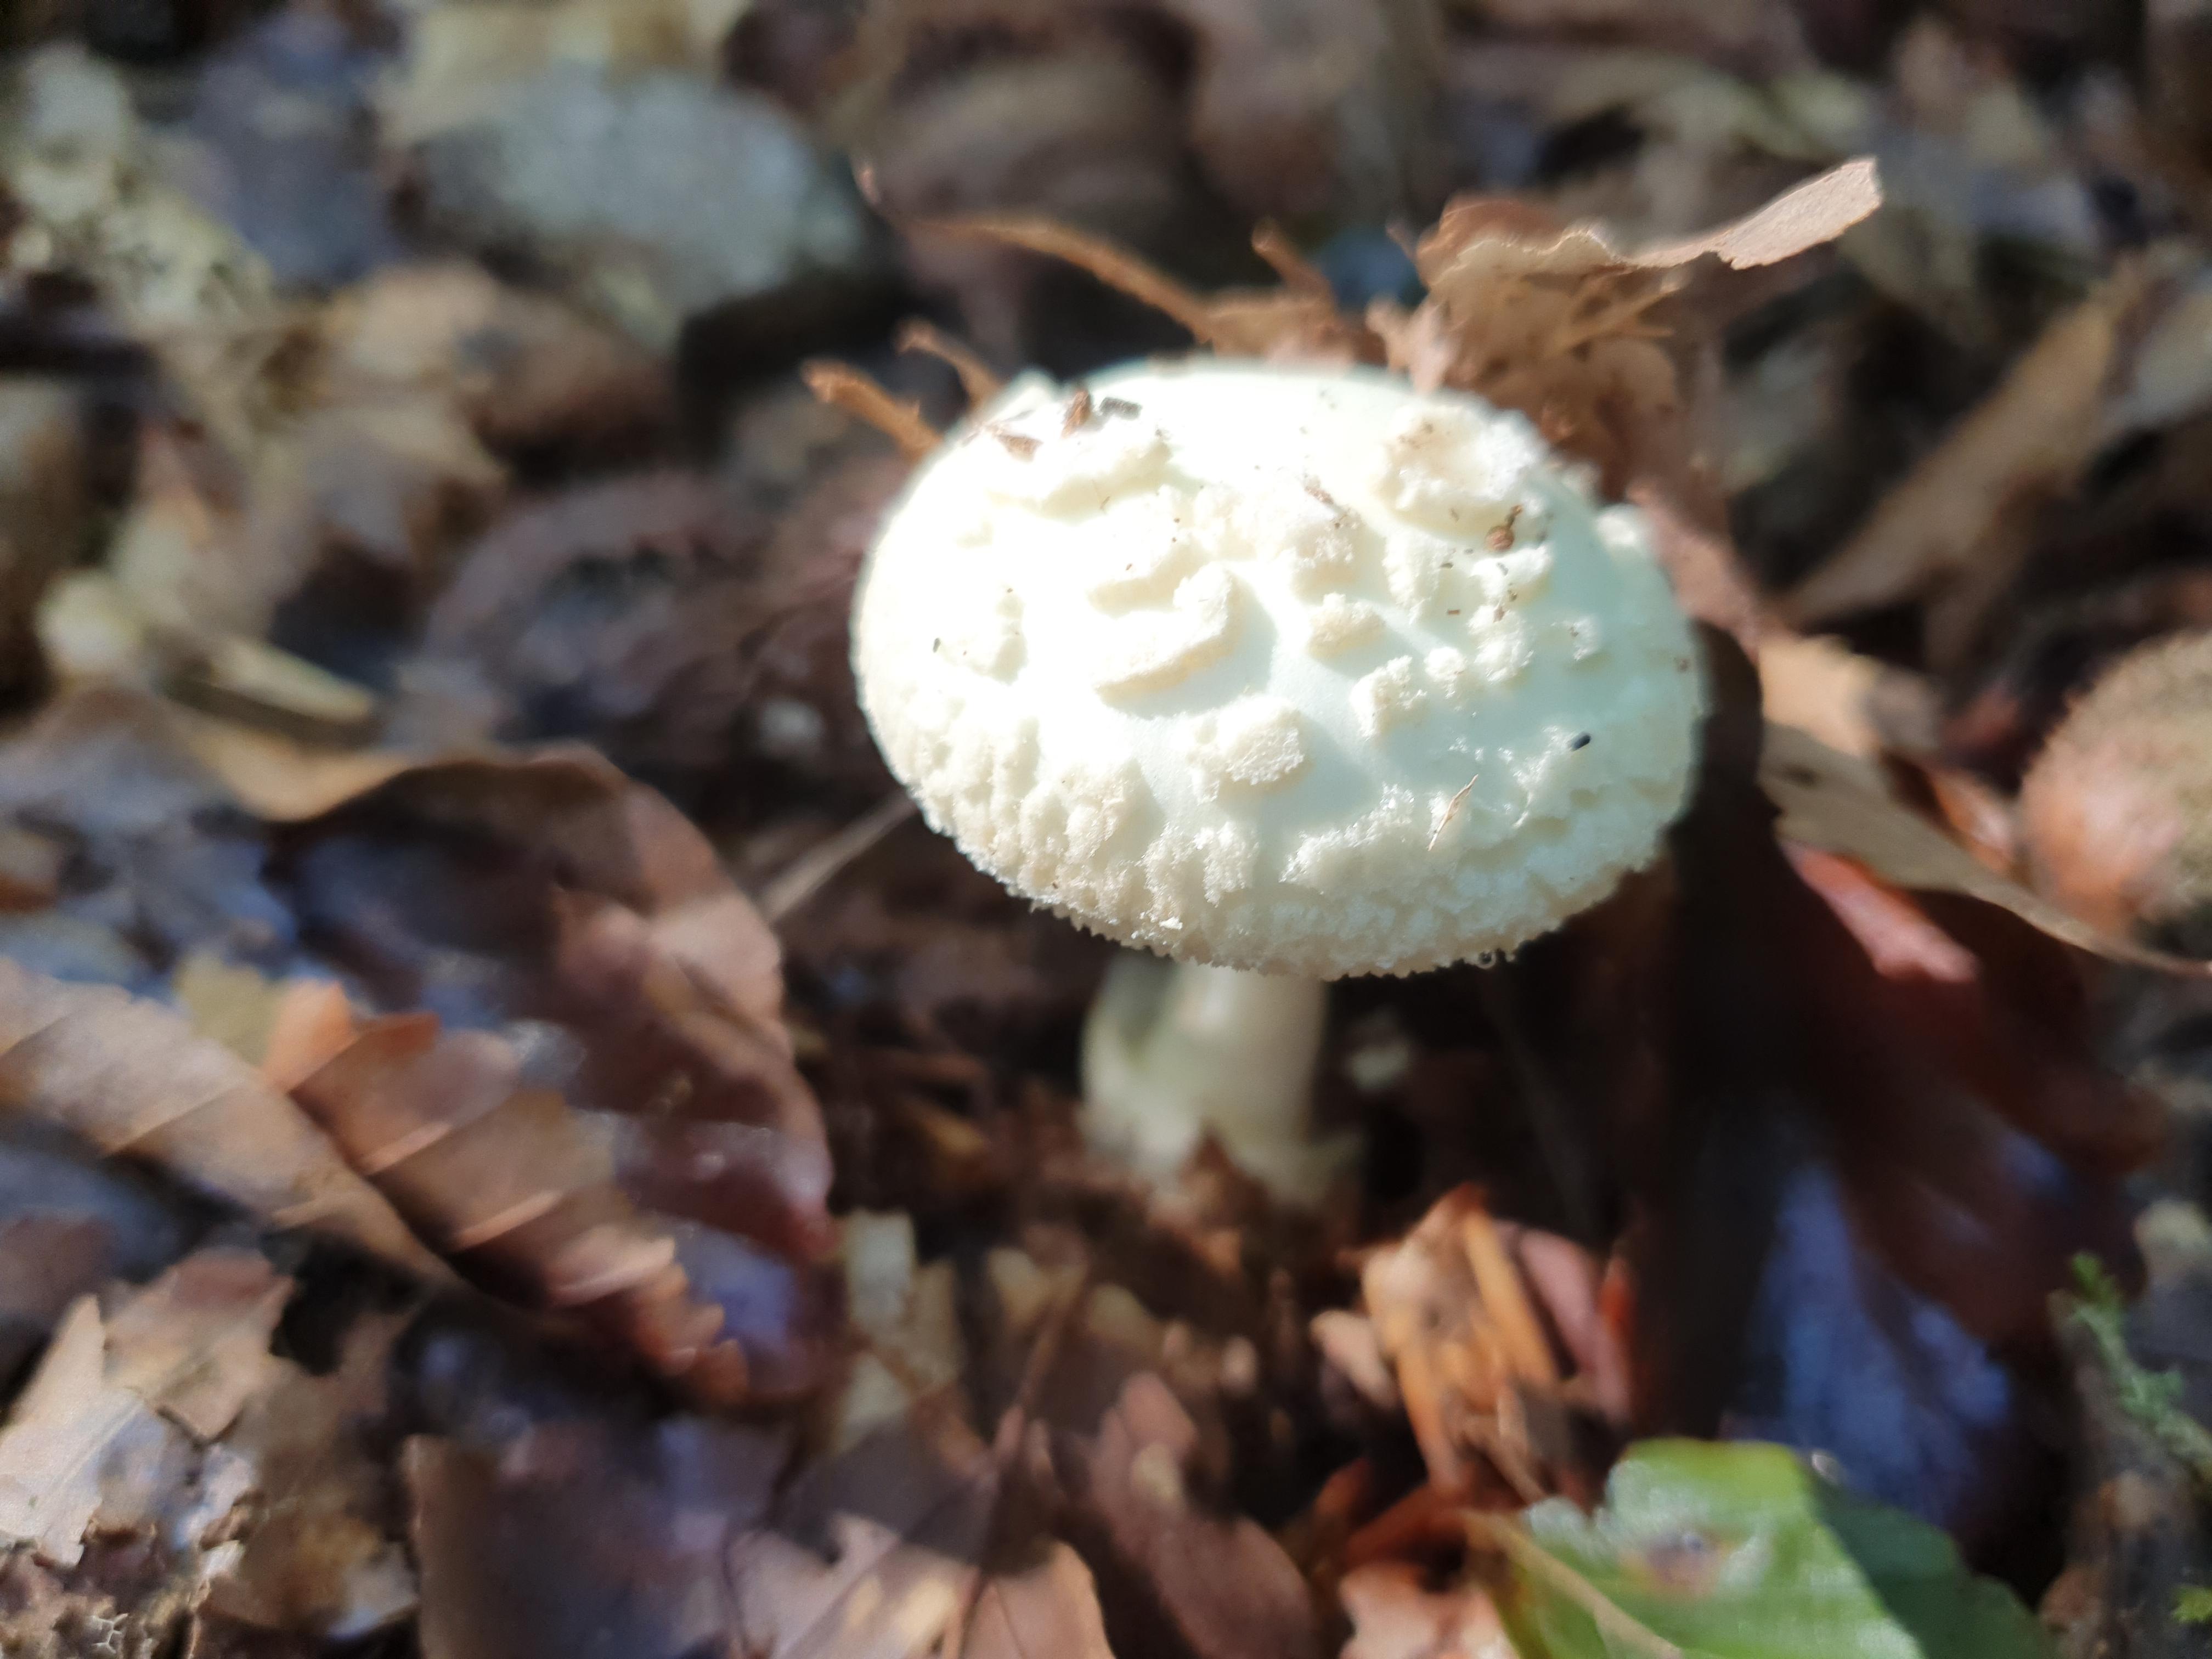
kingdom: Fungi
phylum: Basidiomycota
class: Agaricomycetes
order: Agaricales
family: Amanitaceae
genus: Amanita
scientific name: Amanita citrina
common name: kugleknoldet fluesvamp
